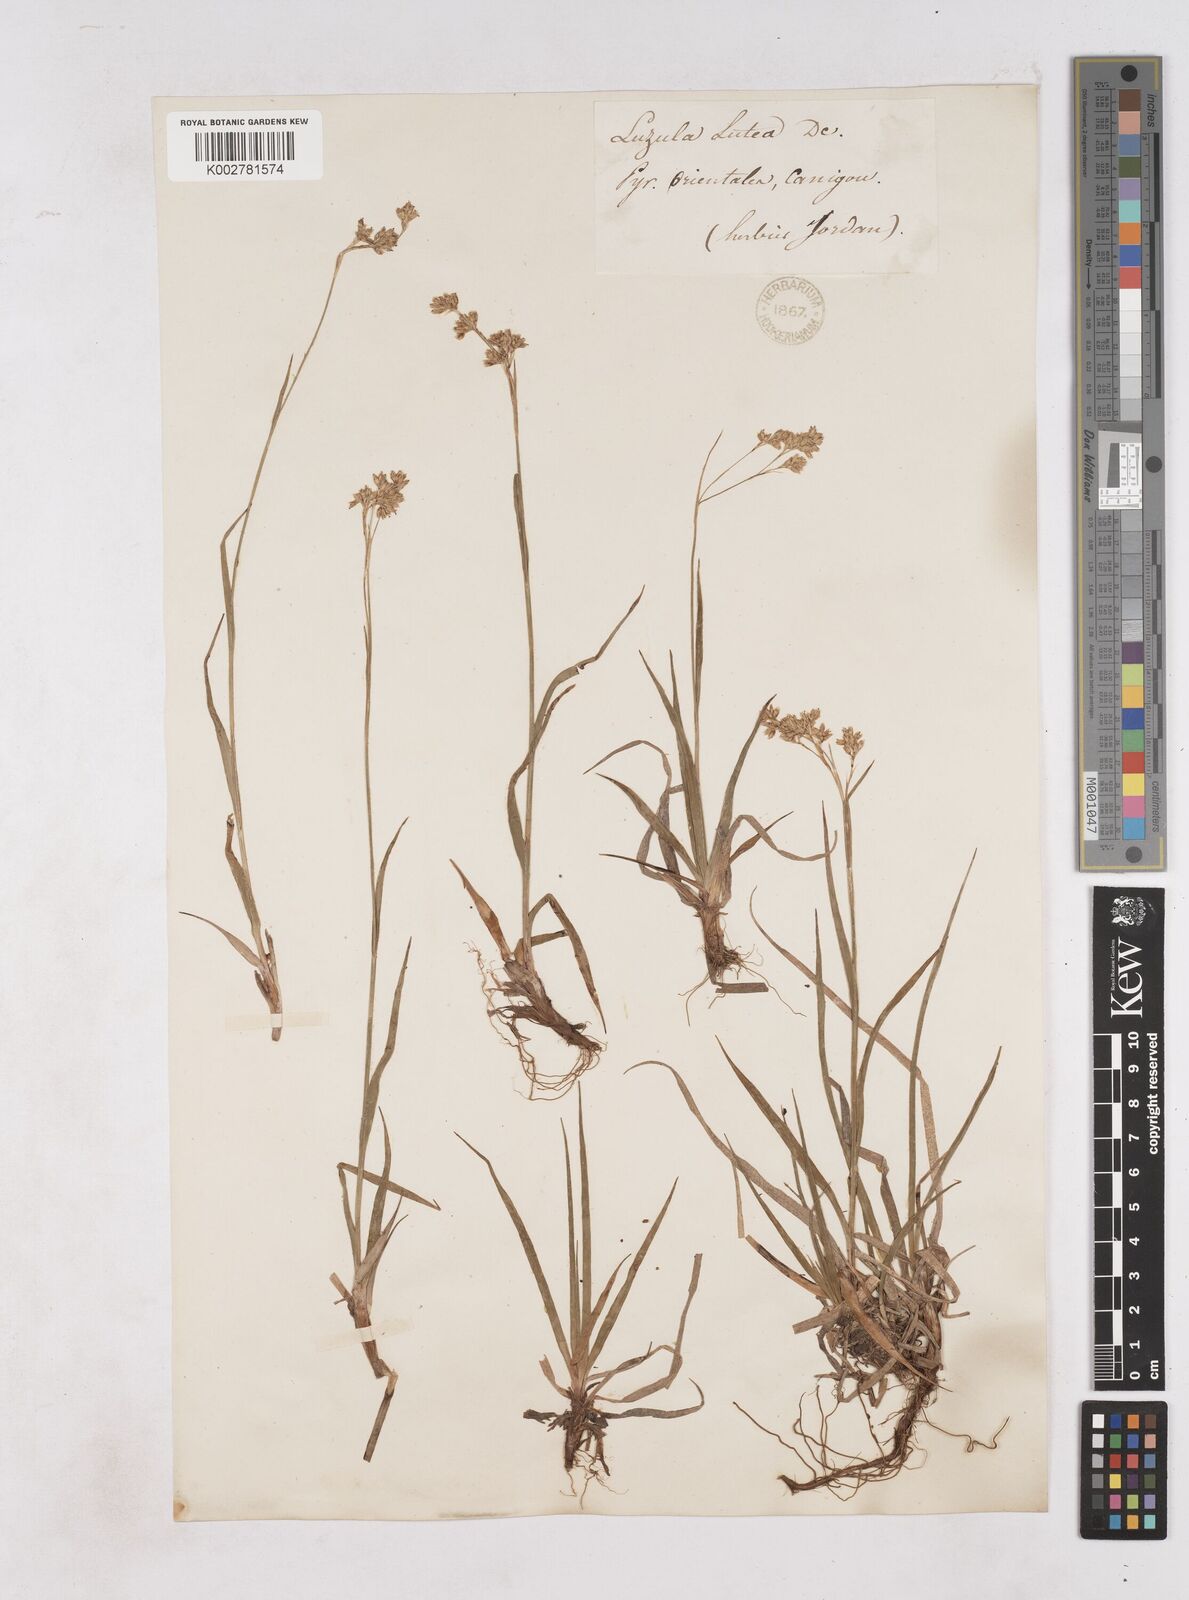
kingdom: Plantae
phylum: Tracheophyta
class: Liliopsida
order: Poales
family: Juncaceae
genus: Luzula
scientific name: Luzula lutea
